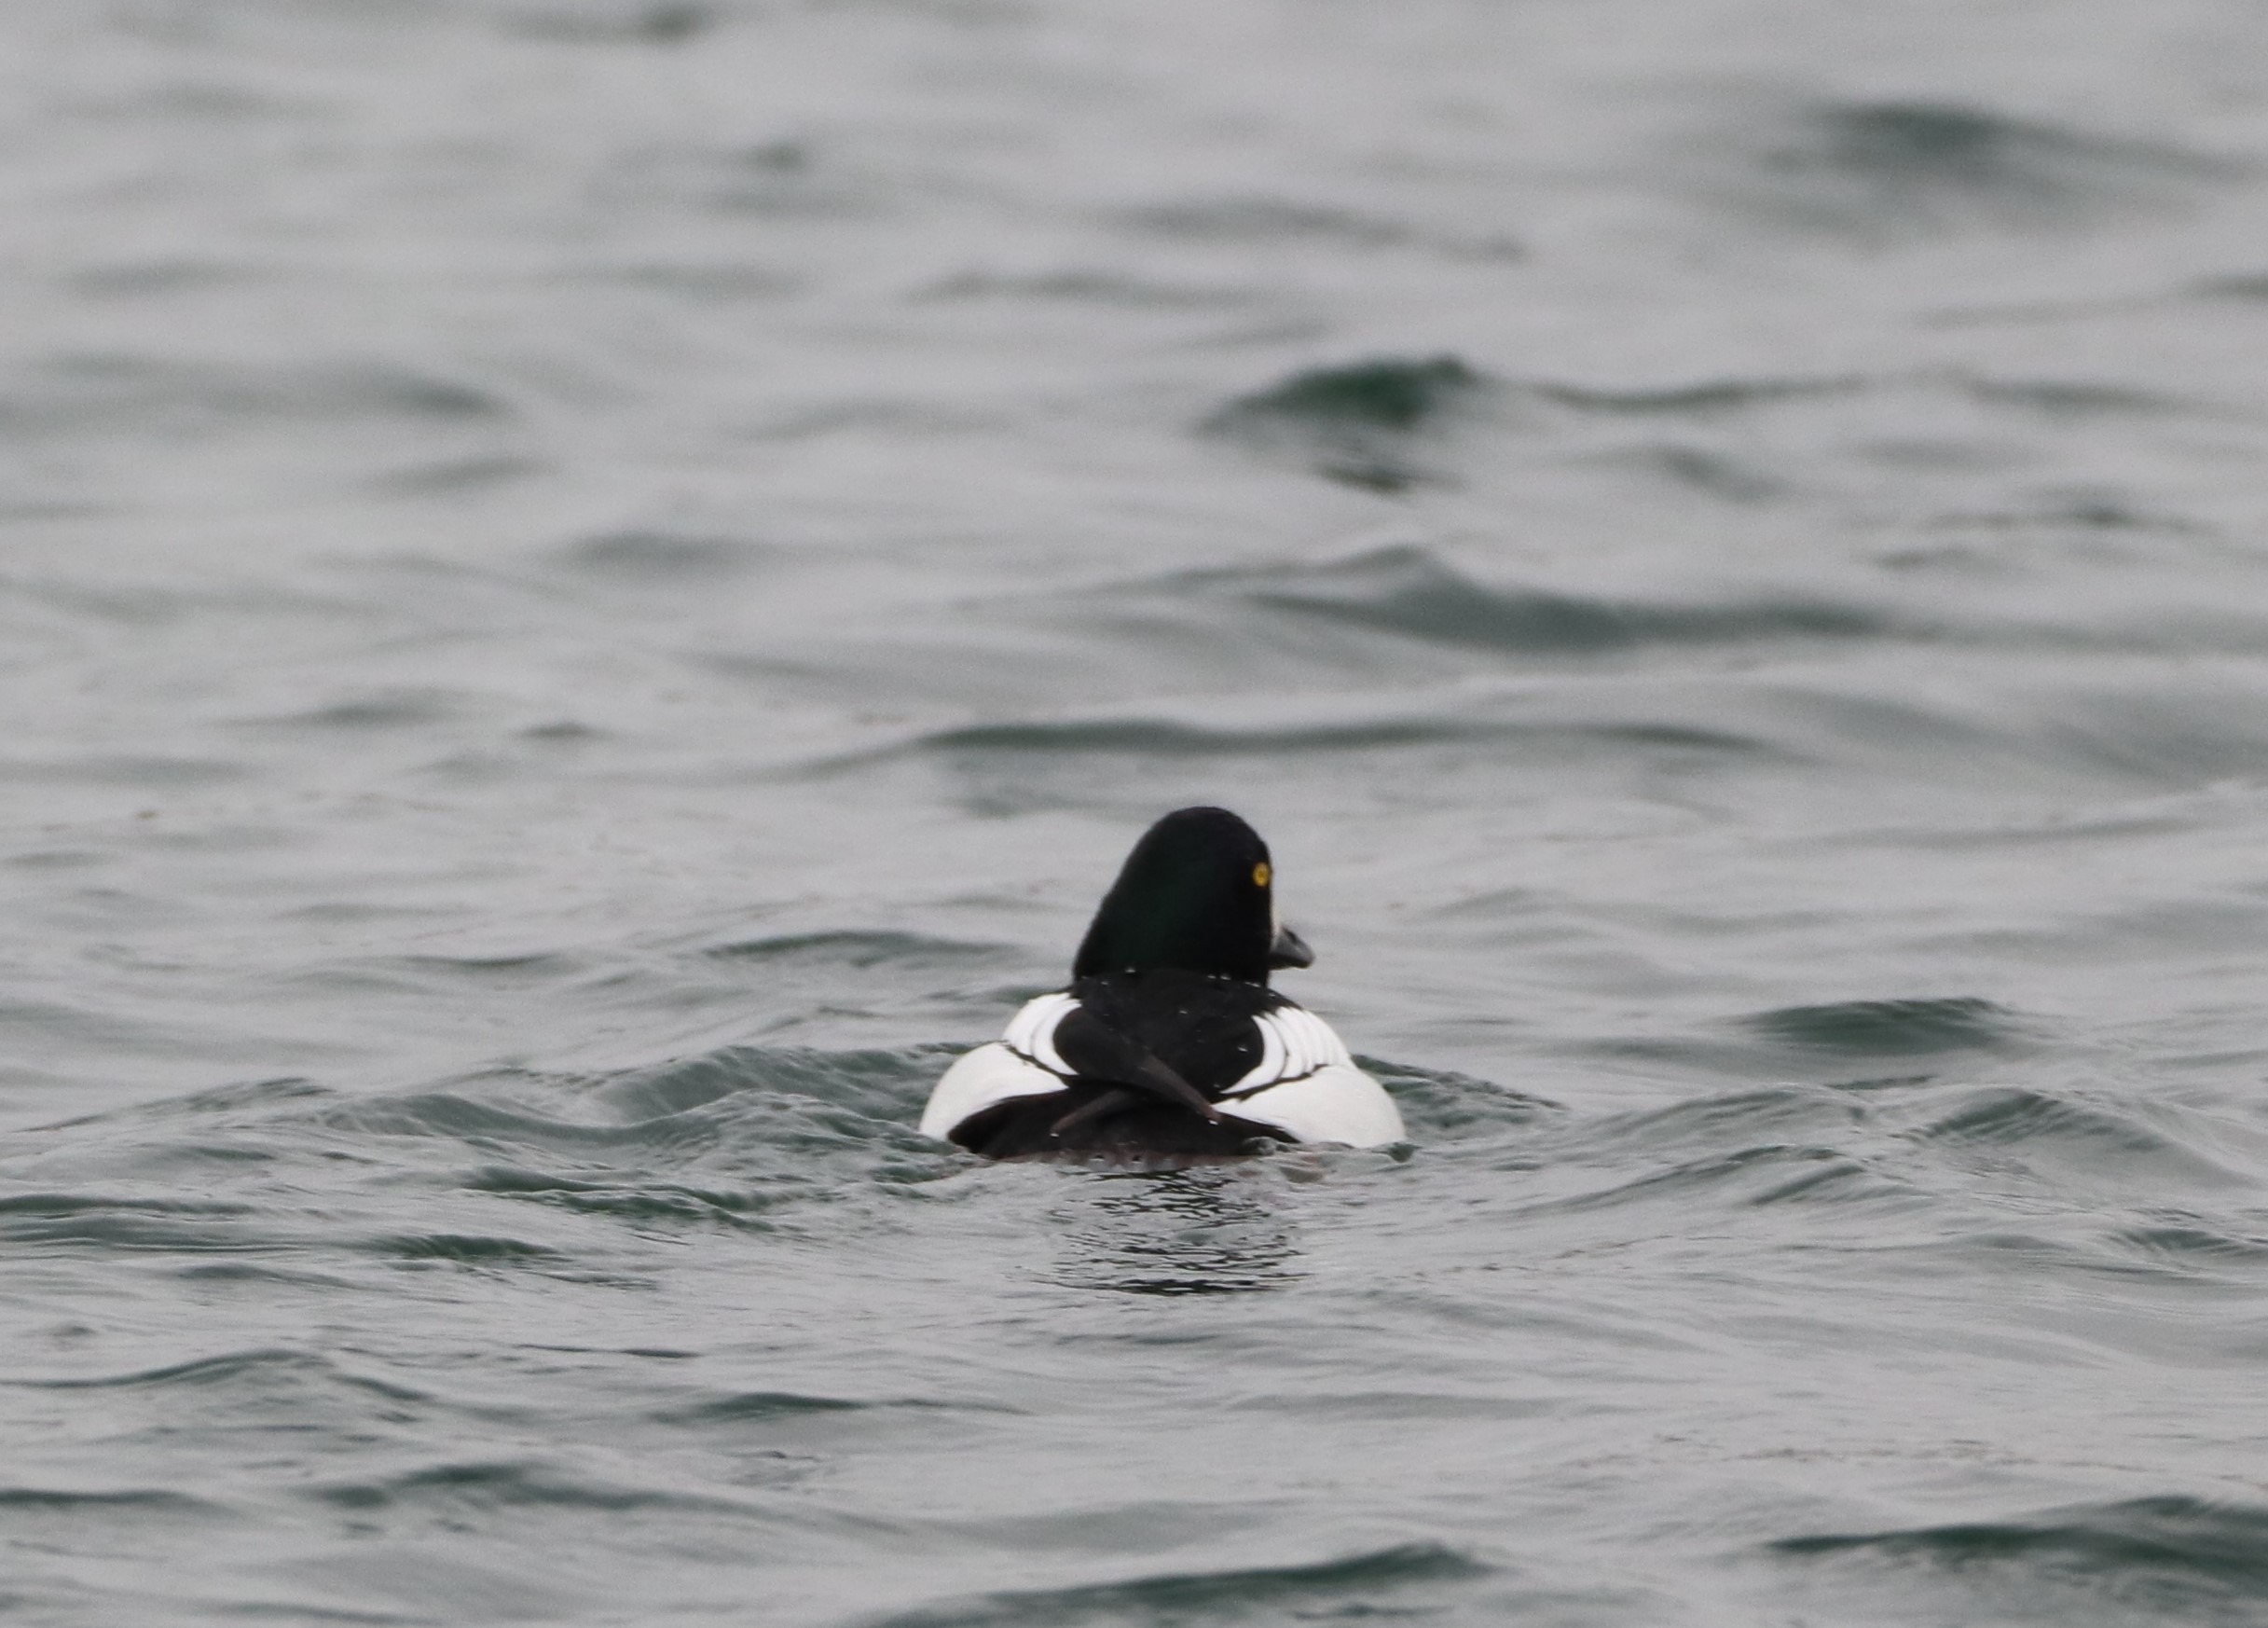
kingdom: Animalia
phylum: Chordata
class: Aves
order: Anseriformes
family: Anatidae
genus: Bucephala
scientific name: Bucephala clangula
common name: Hvinand
